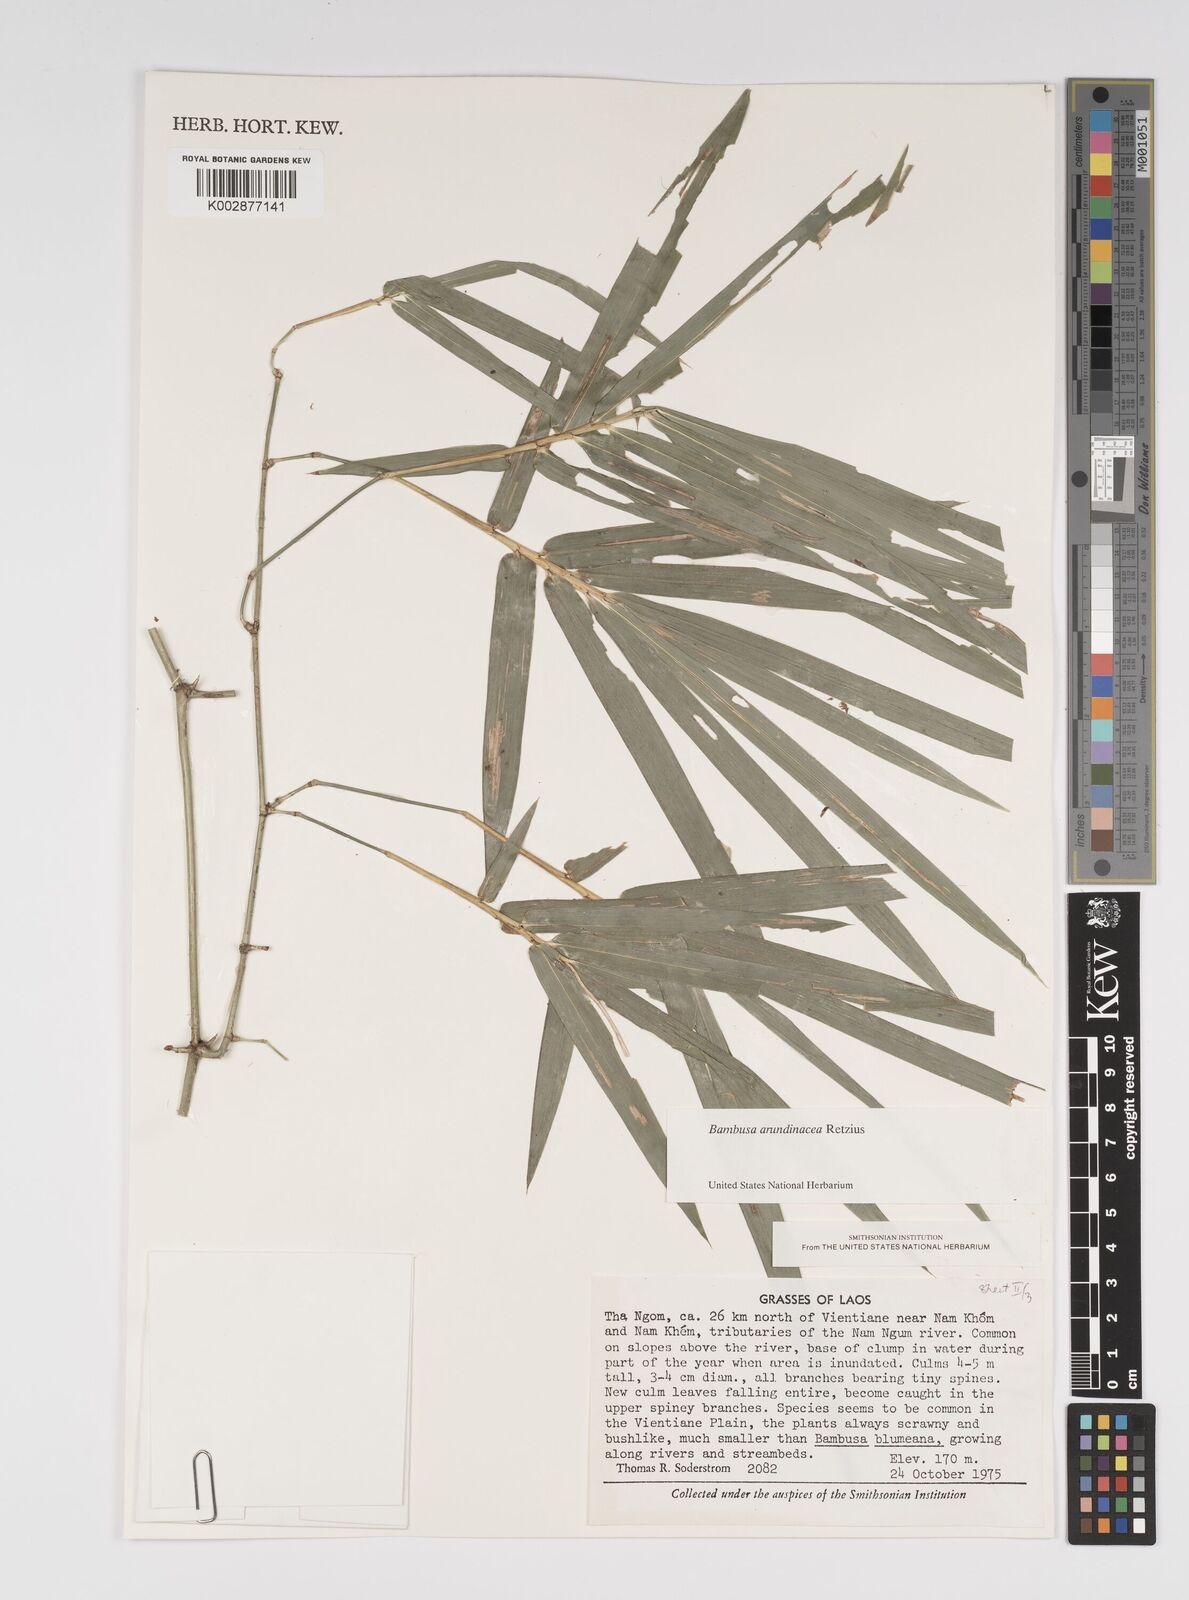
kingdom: Plantae
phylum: Tracheophyta
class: Liliopsida
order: Poales
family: Poaceae
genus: Bambusa
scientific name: Bambusa bambos
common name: Indian thorny bamboo
